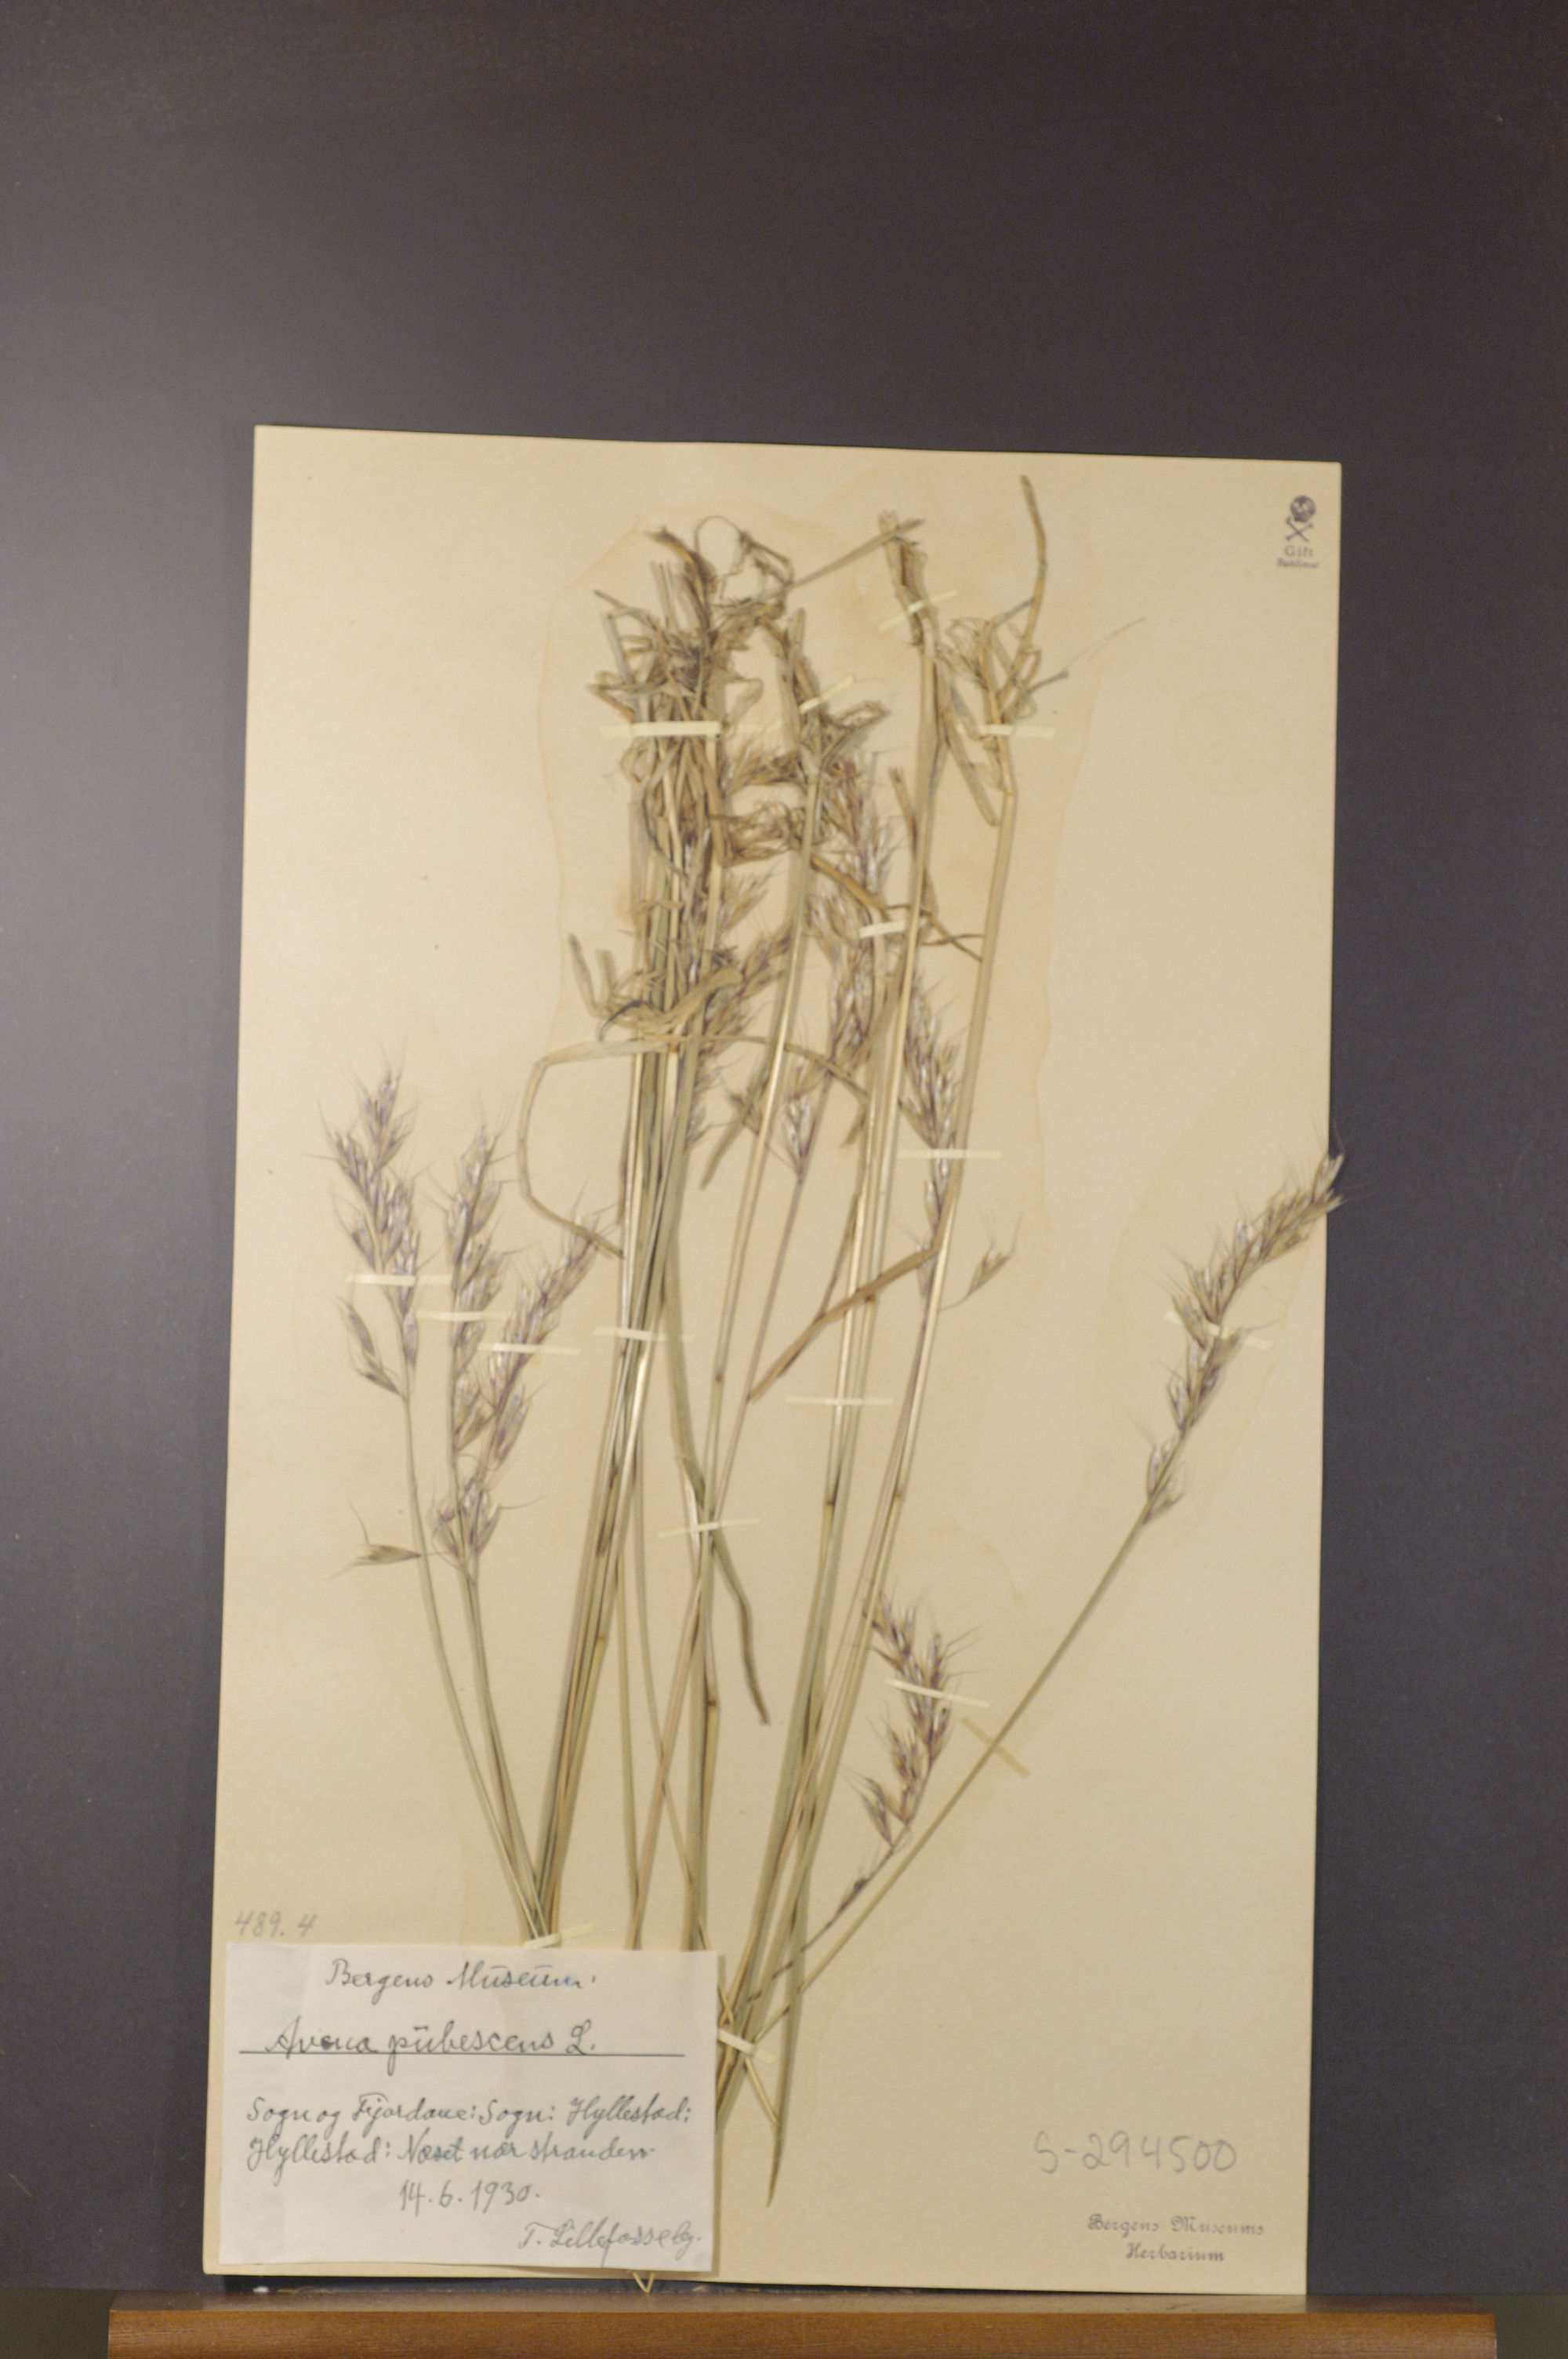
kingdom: Plantae
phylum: Tracheophyta
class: Liliopsida
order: Poales
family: Poaceae
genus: Avenula
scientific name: Avenula pubescens
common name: Downy alpine oatgrass
